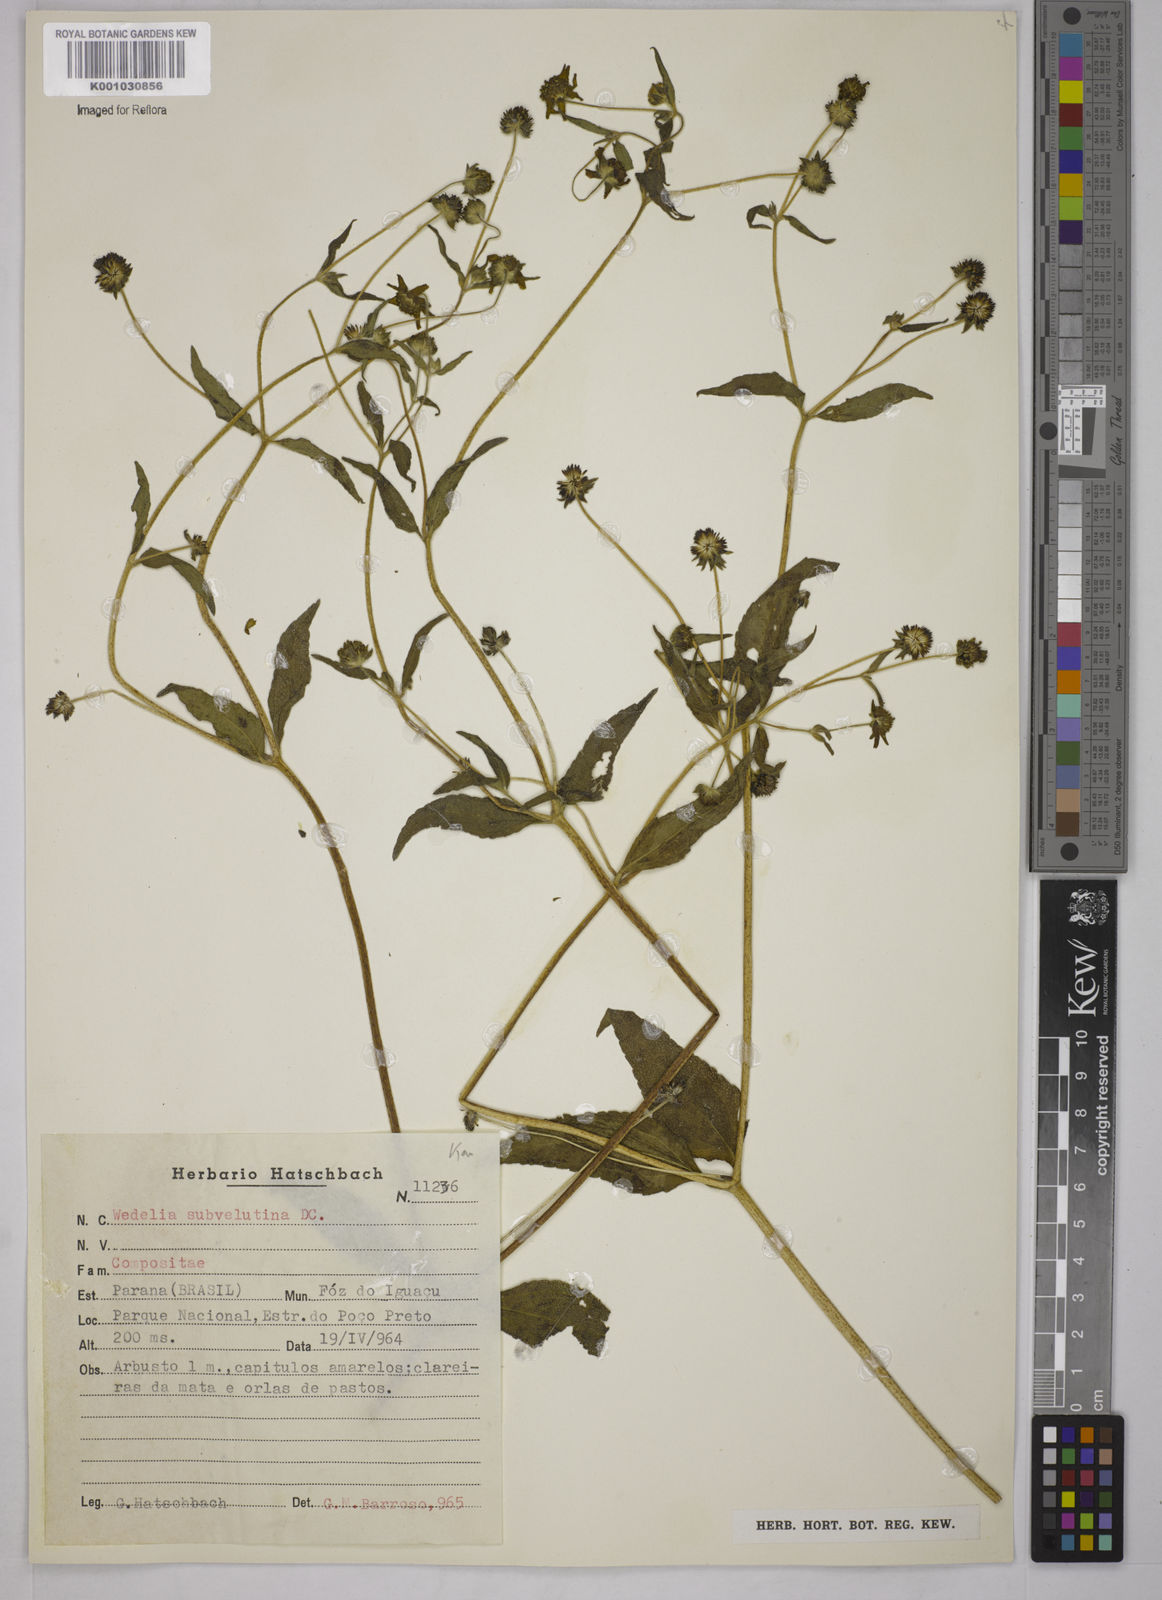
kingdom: Plantae
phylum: Tracheophyta
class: Magnoliopsida
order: Asterales
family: Asteraceae
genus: Wedelia
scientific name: Wedelia subvelutina
